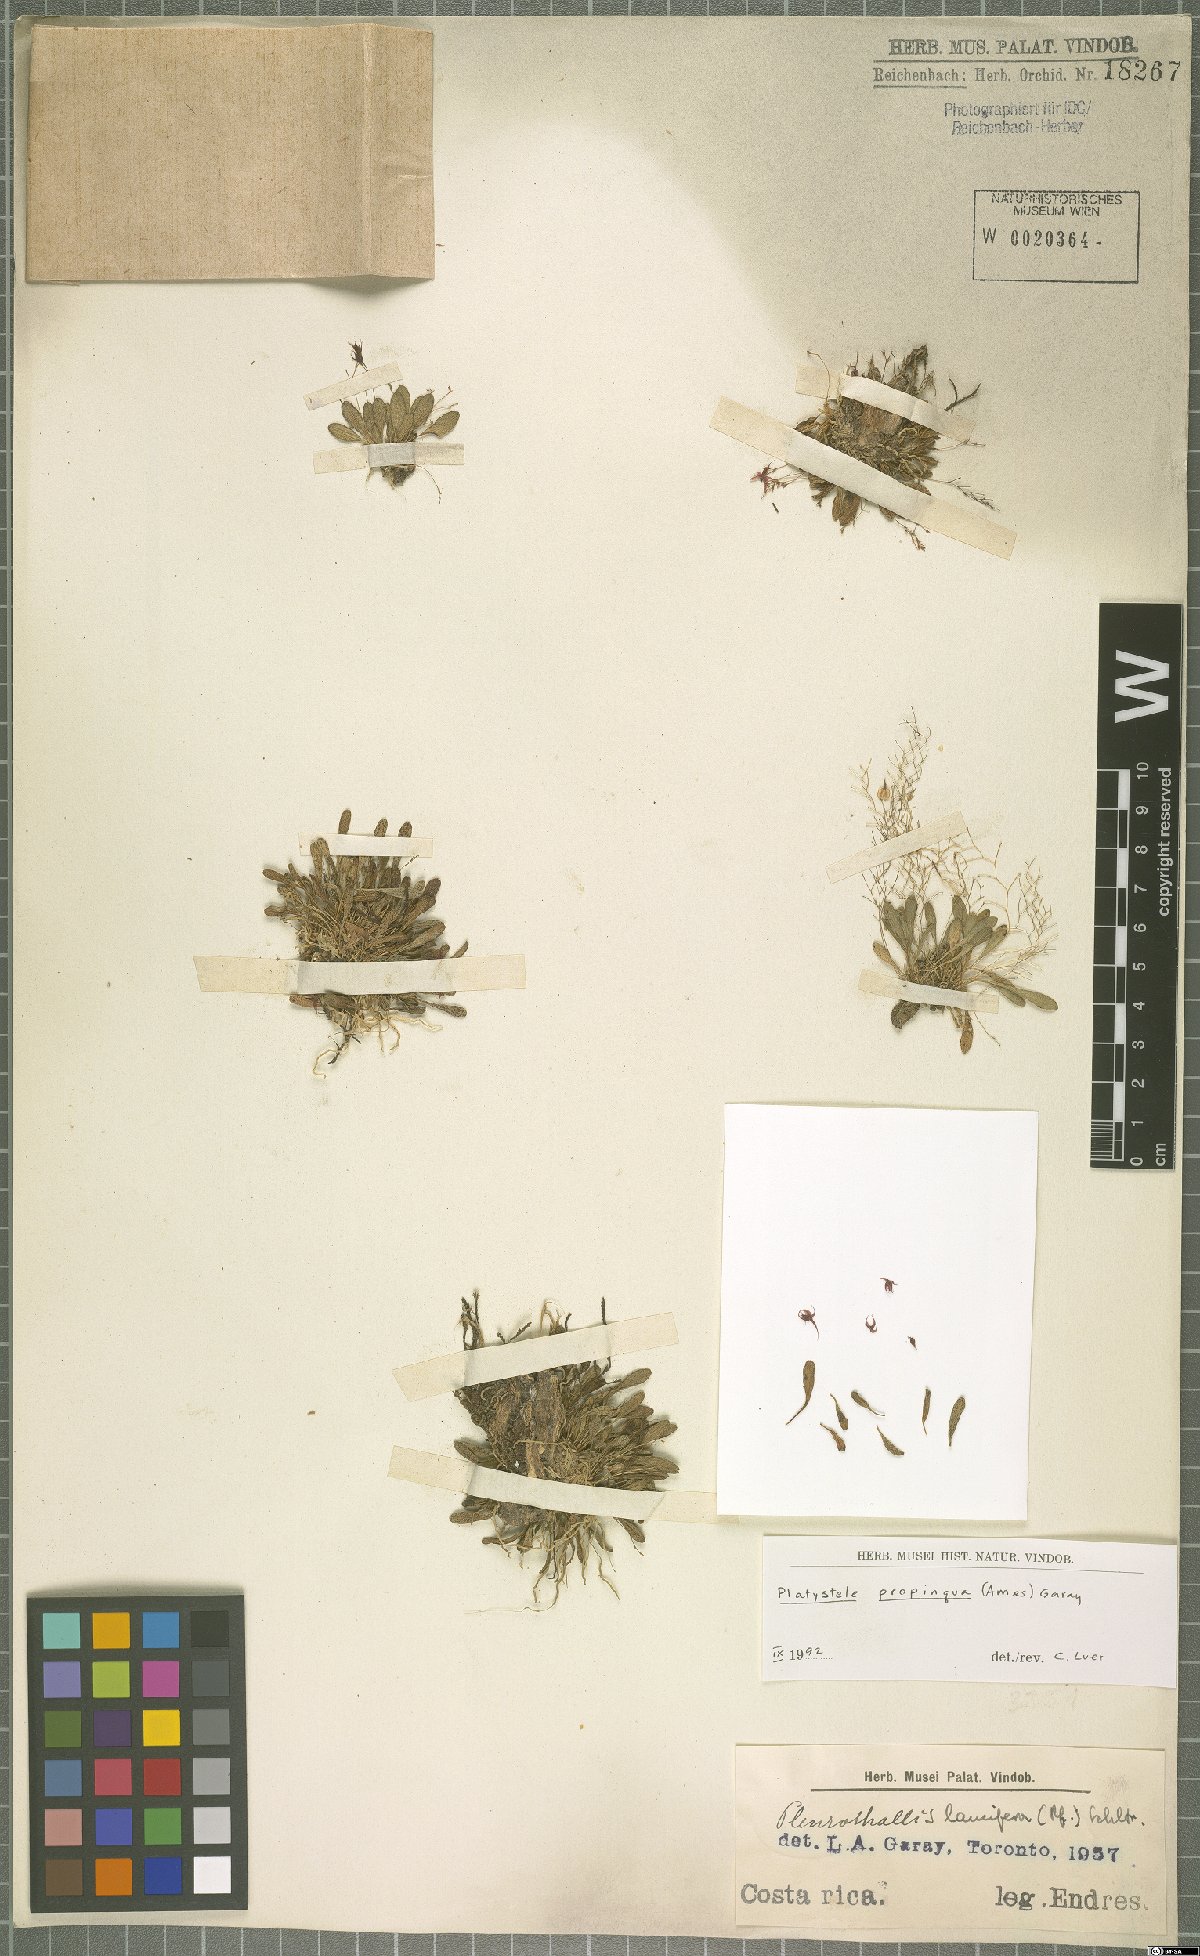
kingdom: Plantae
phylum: Tracheophyta
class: Liliopsida
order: Asparagales
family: Orchidaceae
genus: Platystele
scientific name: Platystele propinqua
